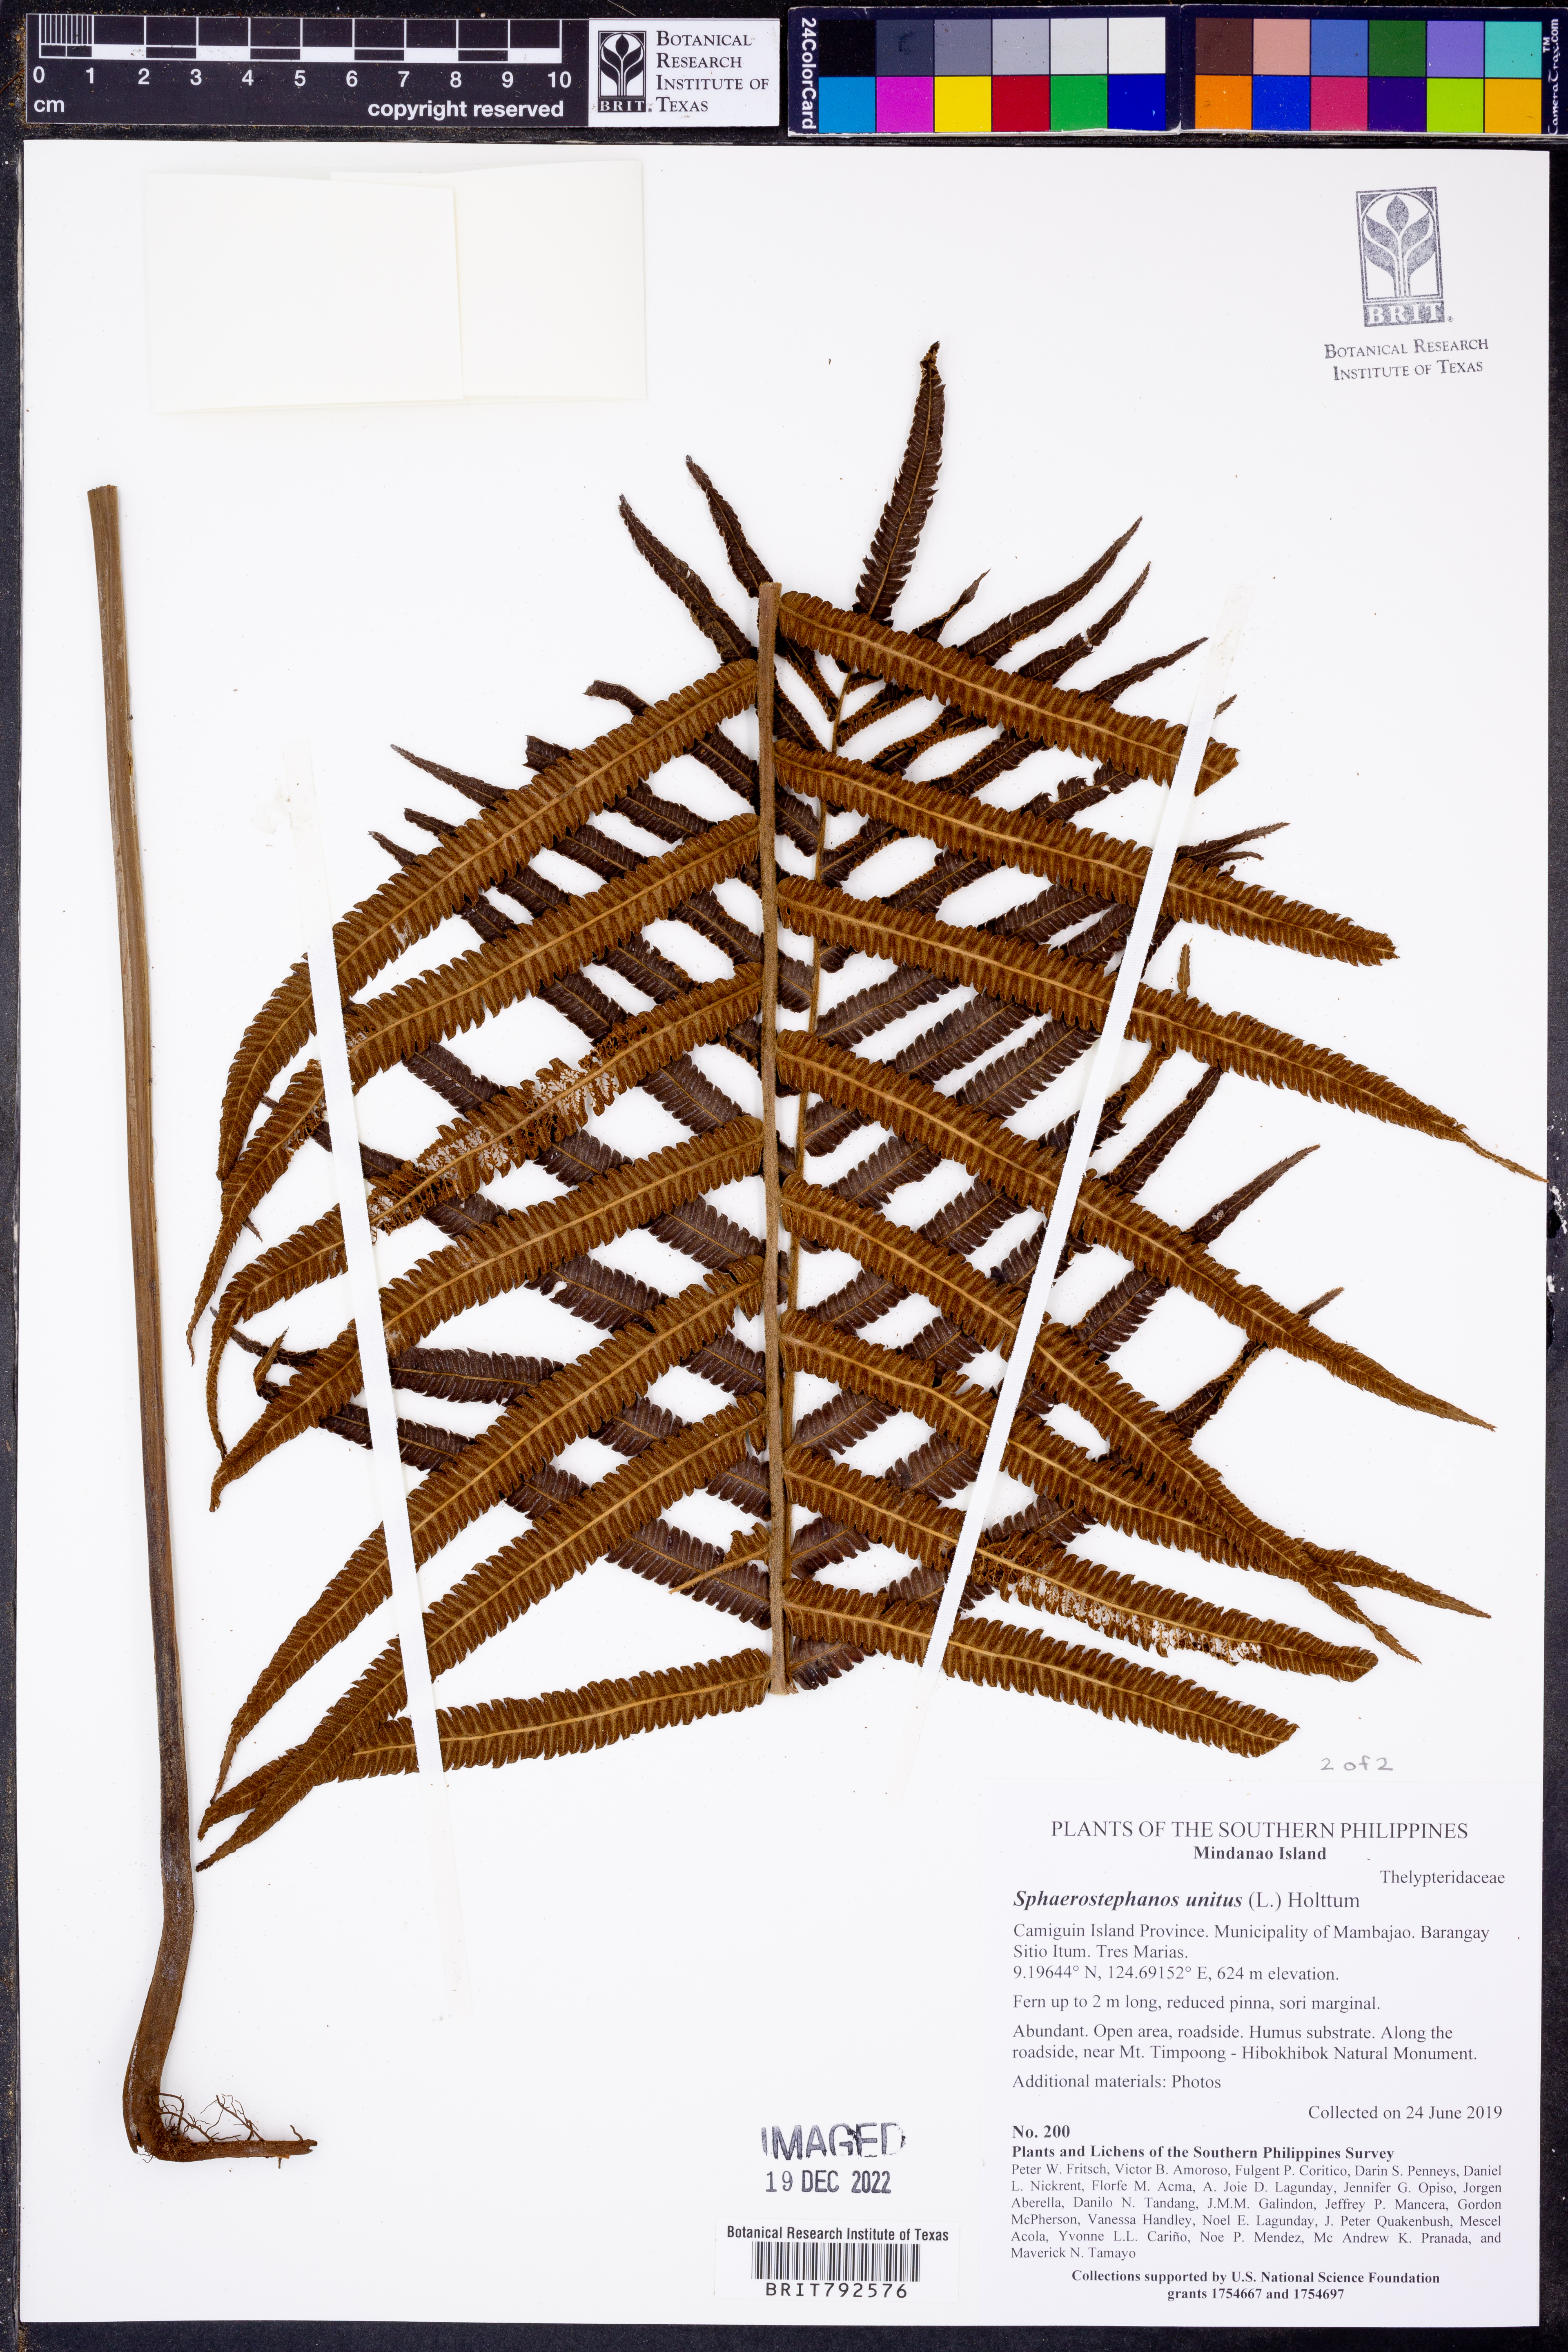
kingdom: Plantae
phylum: Tracheophyta
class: Polypodiopsida
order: Polypodiales
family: Thelypteridaceae
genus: Strophocaulon
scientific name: Strophocaulon unitum
